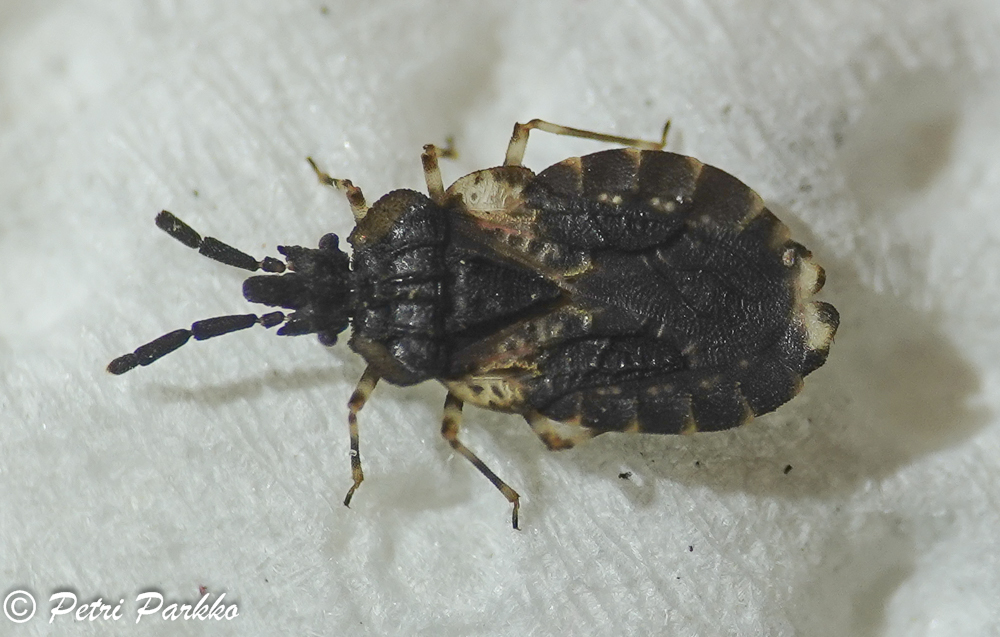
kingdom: Animalia
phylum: Arthropoda
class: Insecta
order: Hemiptera
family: Aradidae
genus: Aradus
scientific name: Aradus truncatus
